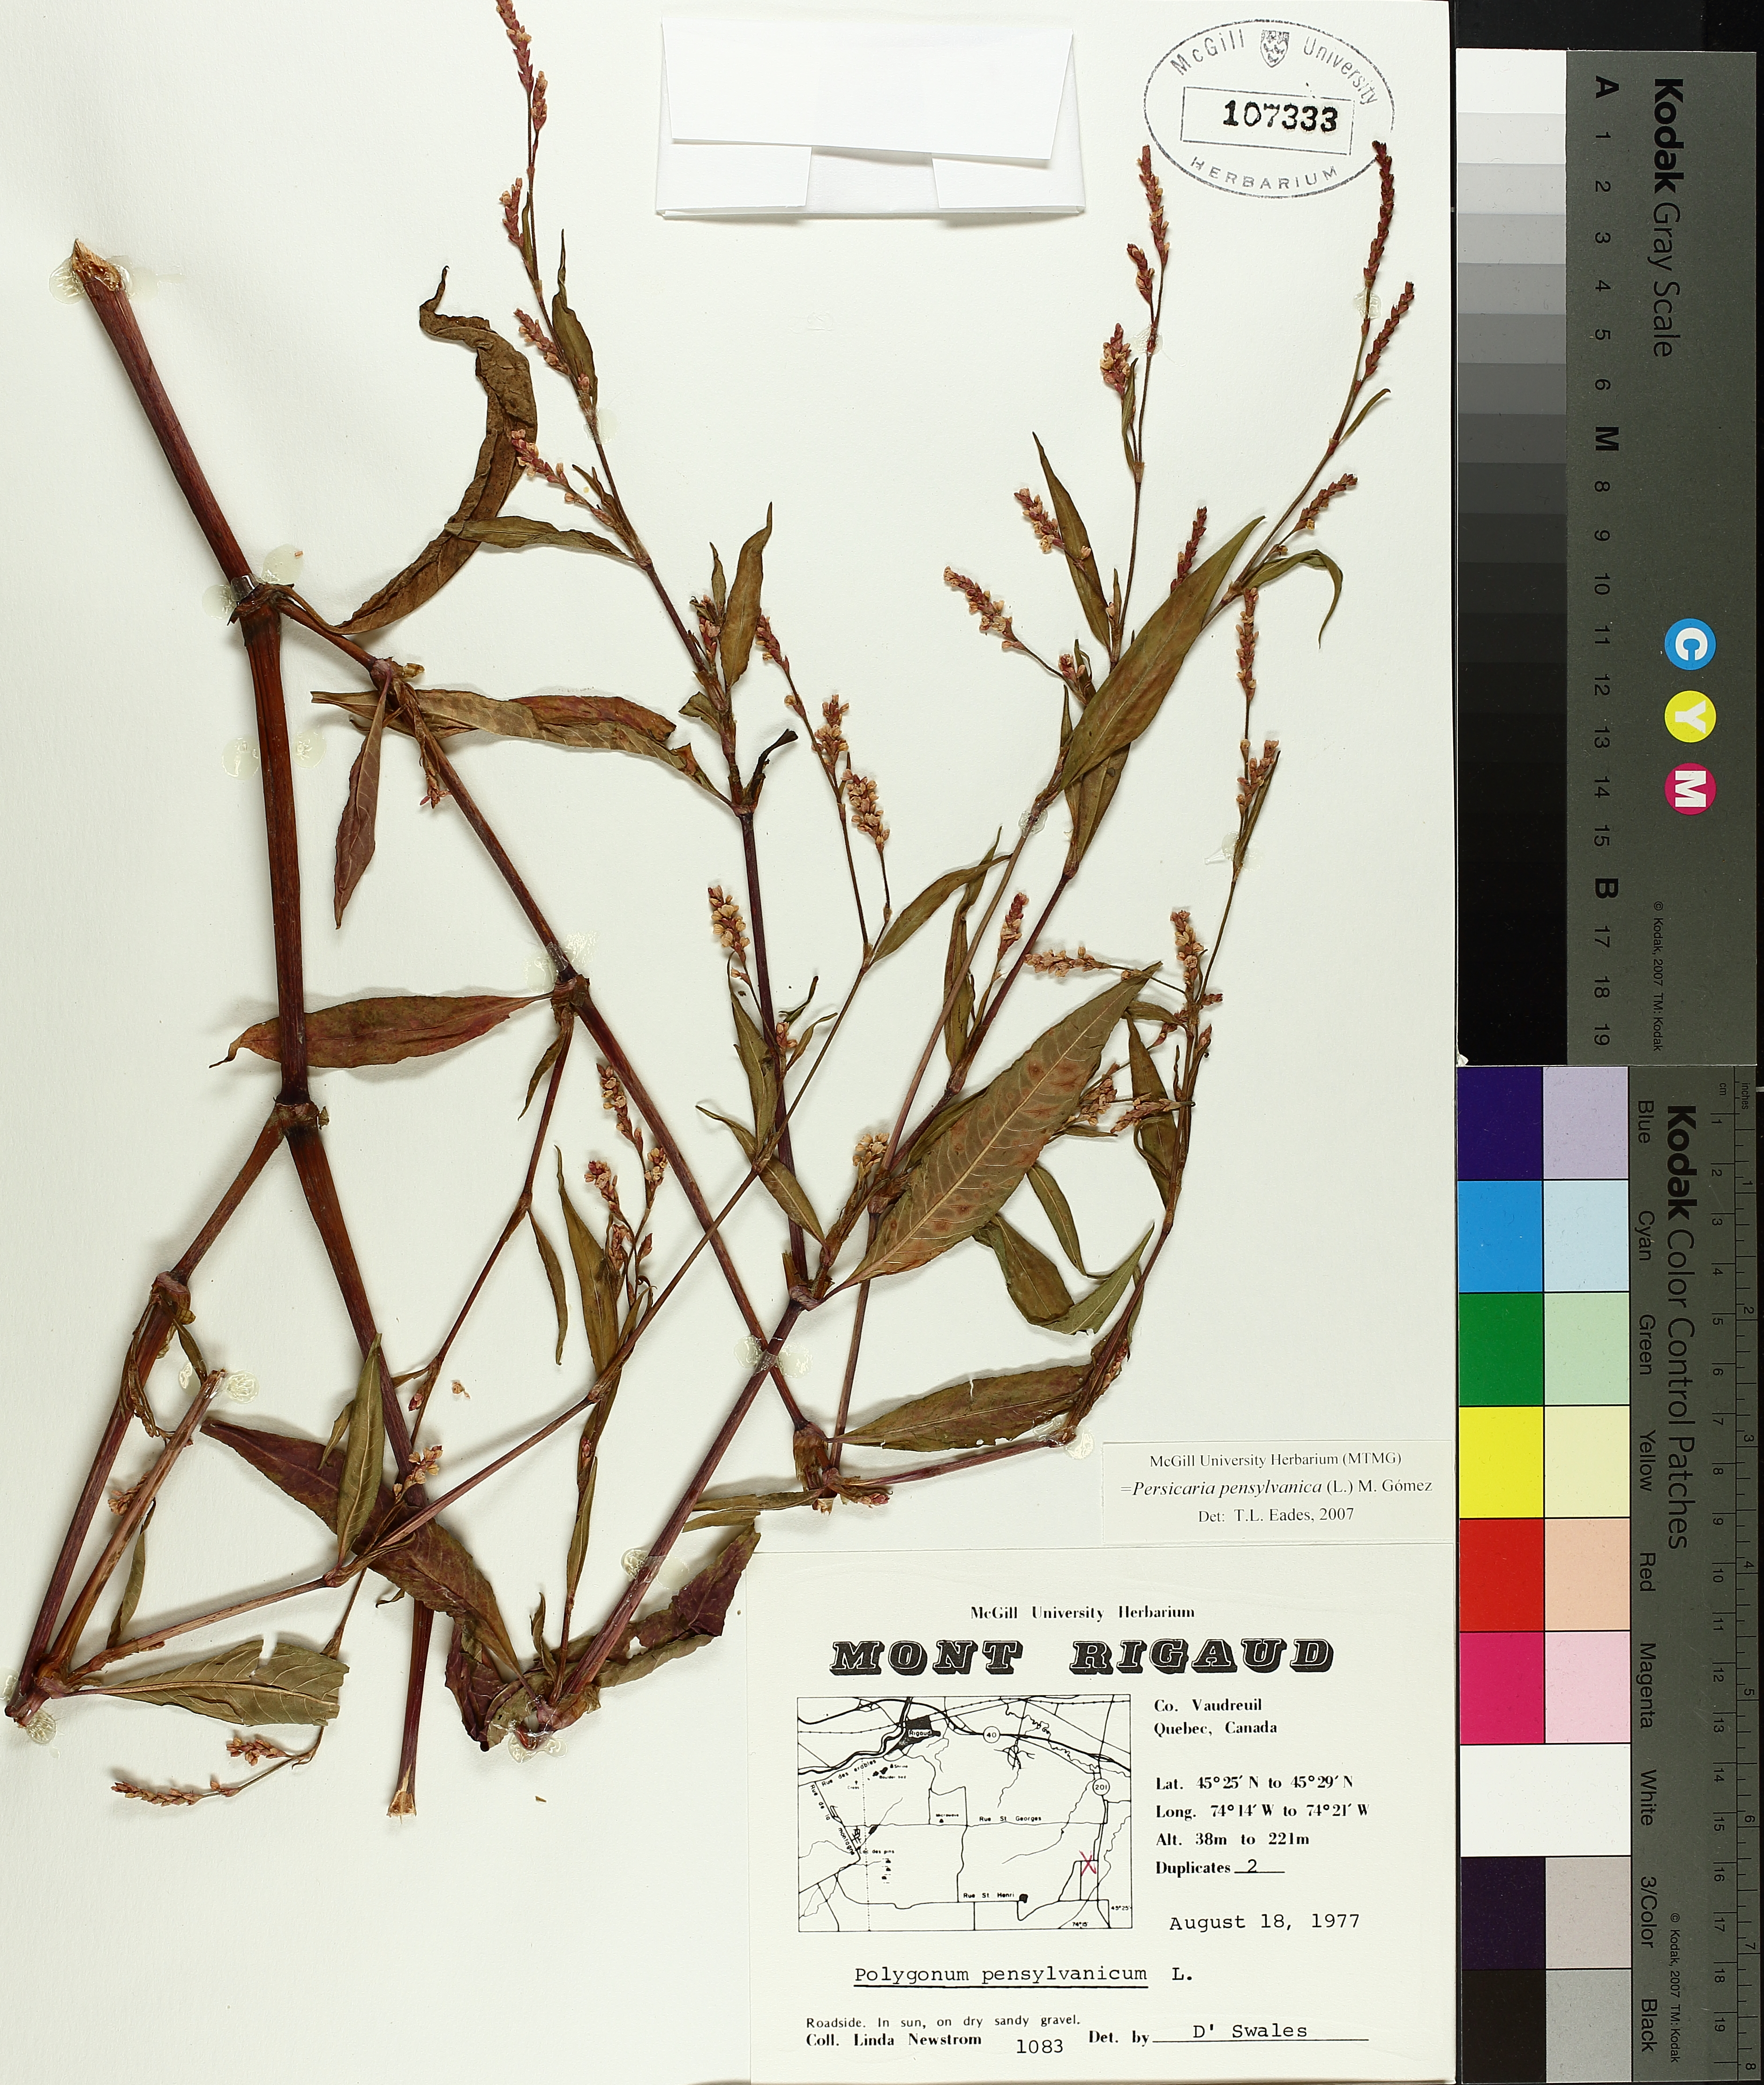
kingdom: Plantae
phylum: Tracheophyta
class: Magnoliopsida
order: Caryophyllales
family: Polygonaceae
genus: Persicaria
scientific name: Persicaria bungeana
